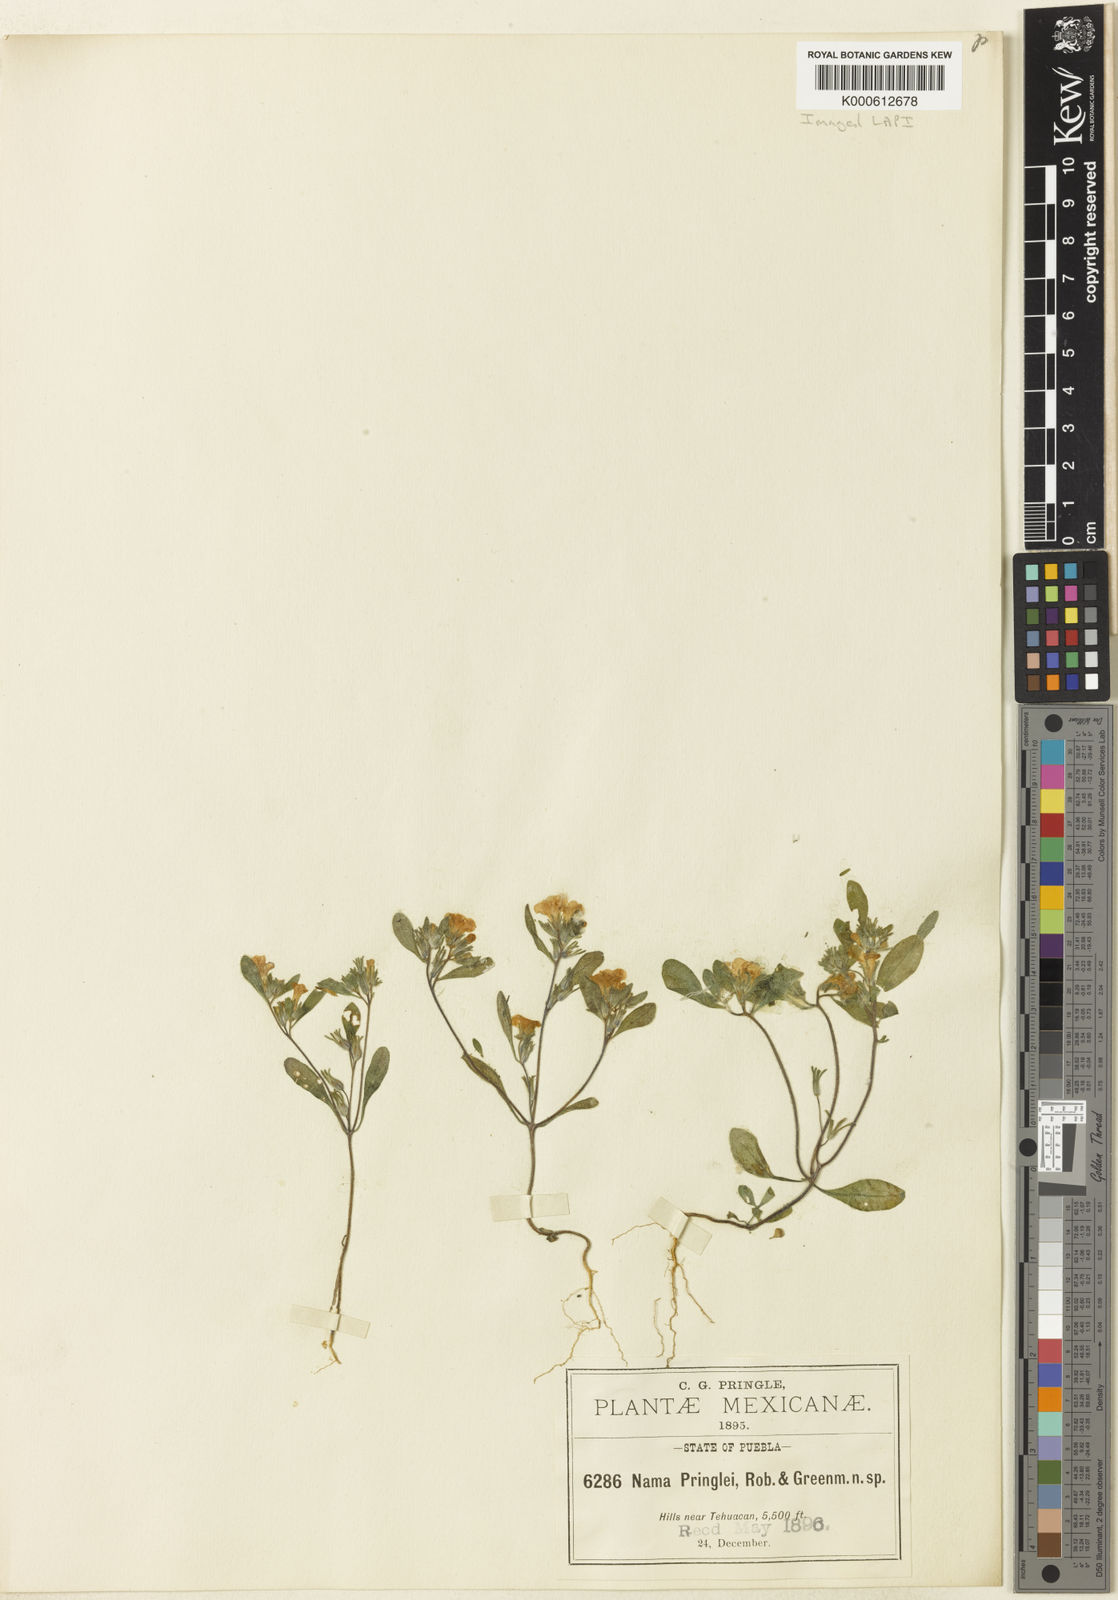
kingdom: Plantae
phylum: Tracheophyta
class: Magnoliopsida
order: Boraginales
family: Namaceae
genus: Nama
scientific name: Nama coulteri
